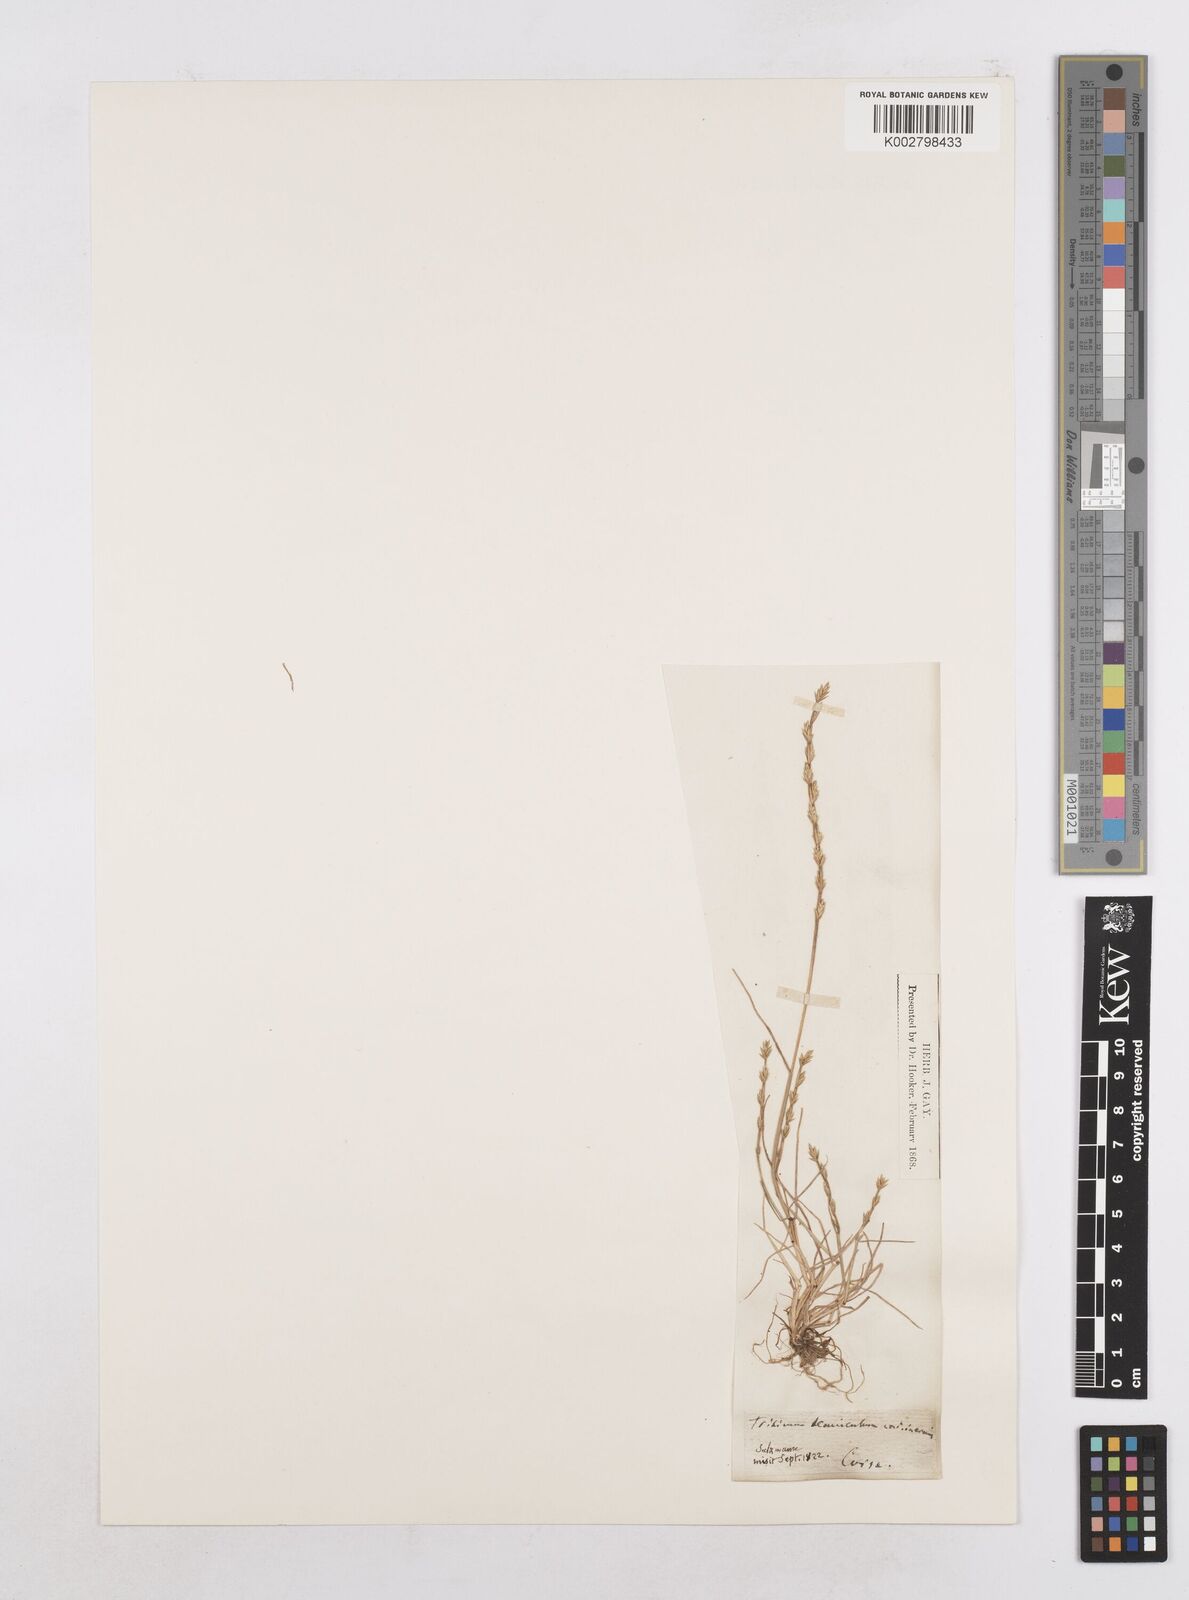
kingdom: Plantae
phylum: Tracheophyta
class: Liliopsida
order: Poales
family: Poaceae
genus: Festuca
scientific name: Festuca lachenalii
